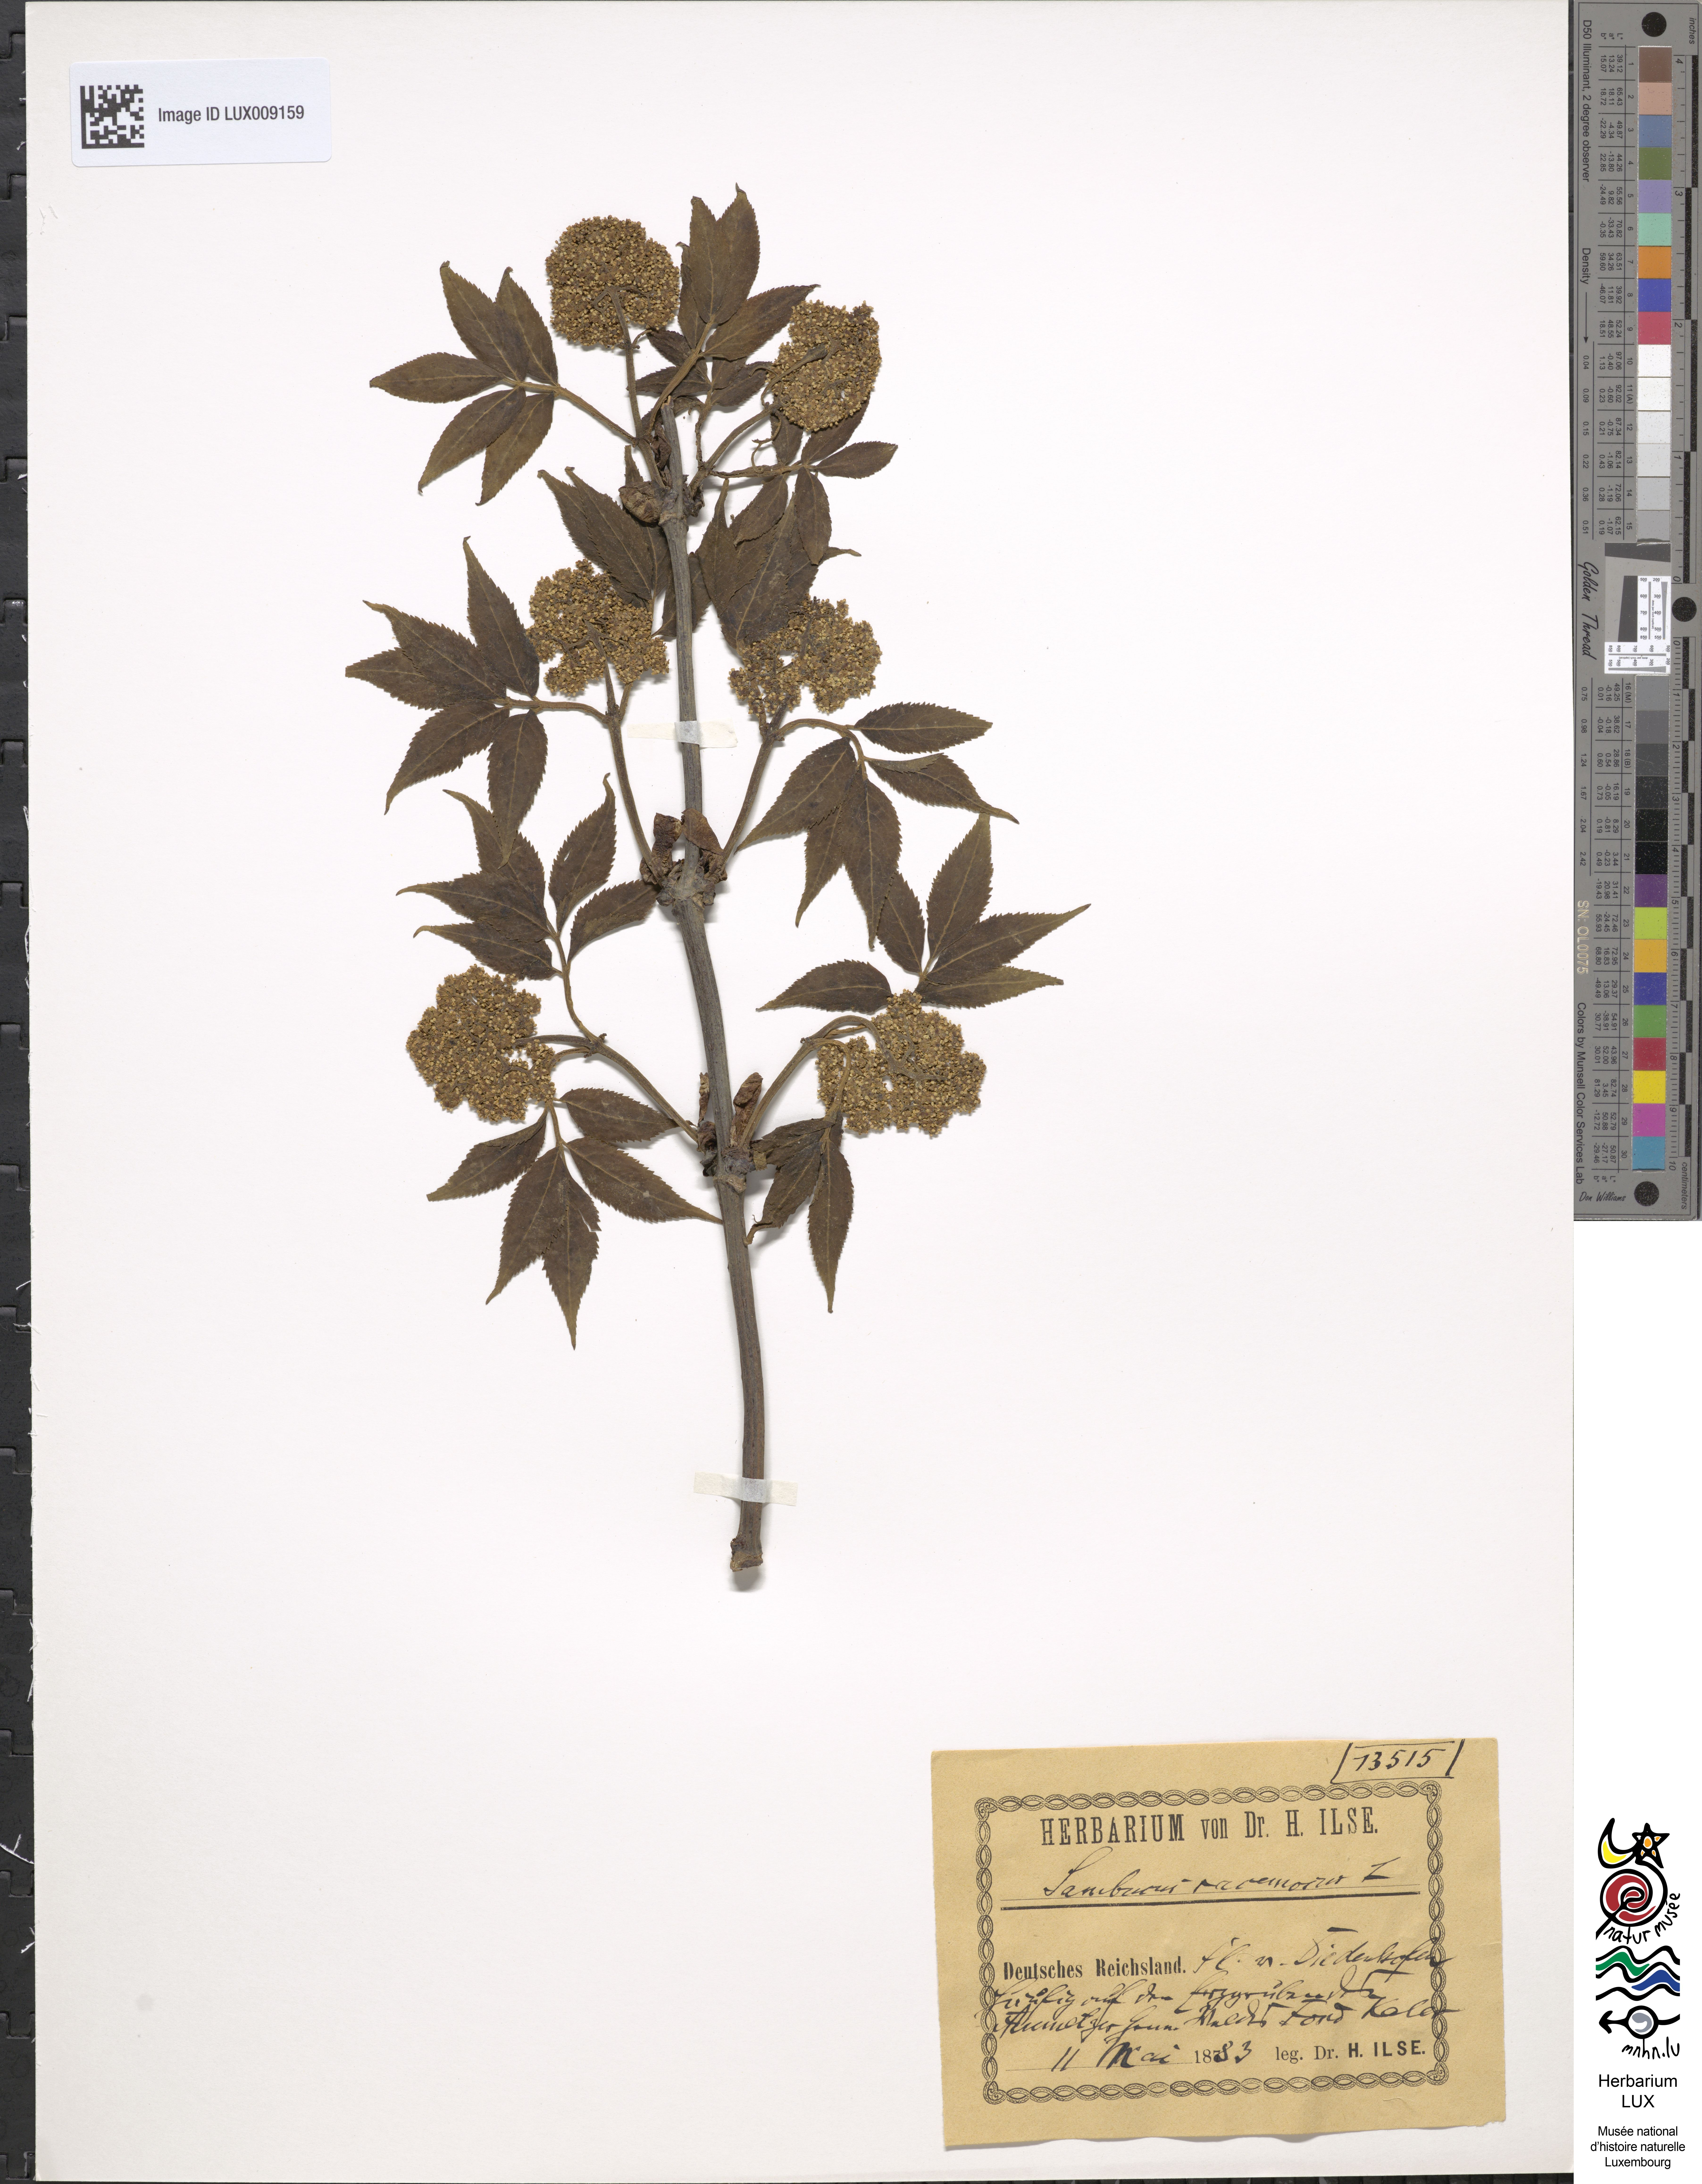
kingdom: Plantae
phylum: Tracheophyta
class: Magnoliopsida
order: Dipsacales
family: Viburnaceae
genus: Sambucus
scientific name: Sambucus racemosa
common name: Red-berried elder
